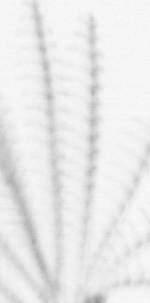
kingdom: Animalia
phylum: Arthropoda
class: Maxillopoda
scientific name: Maxillopoda
